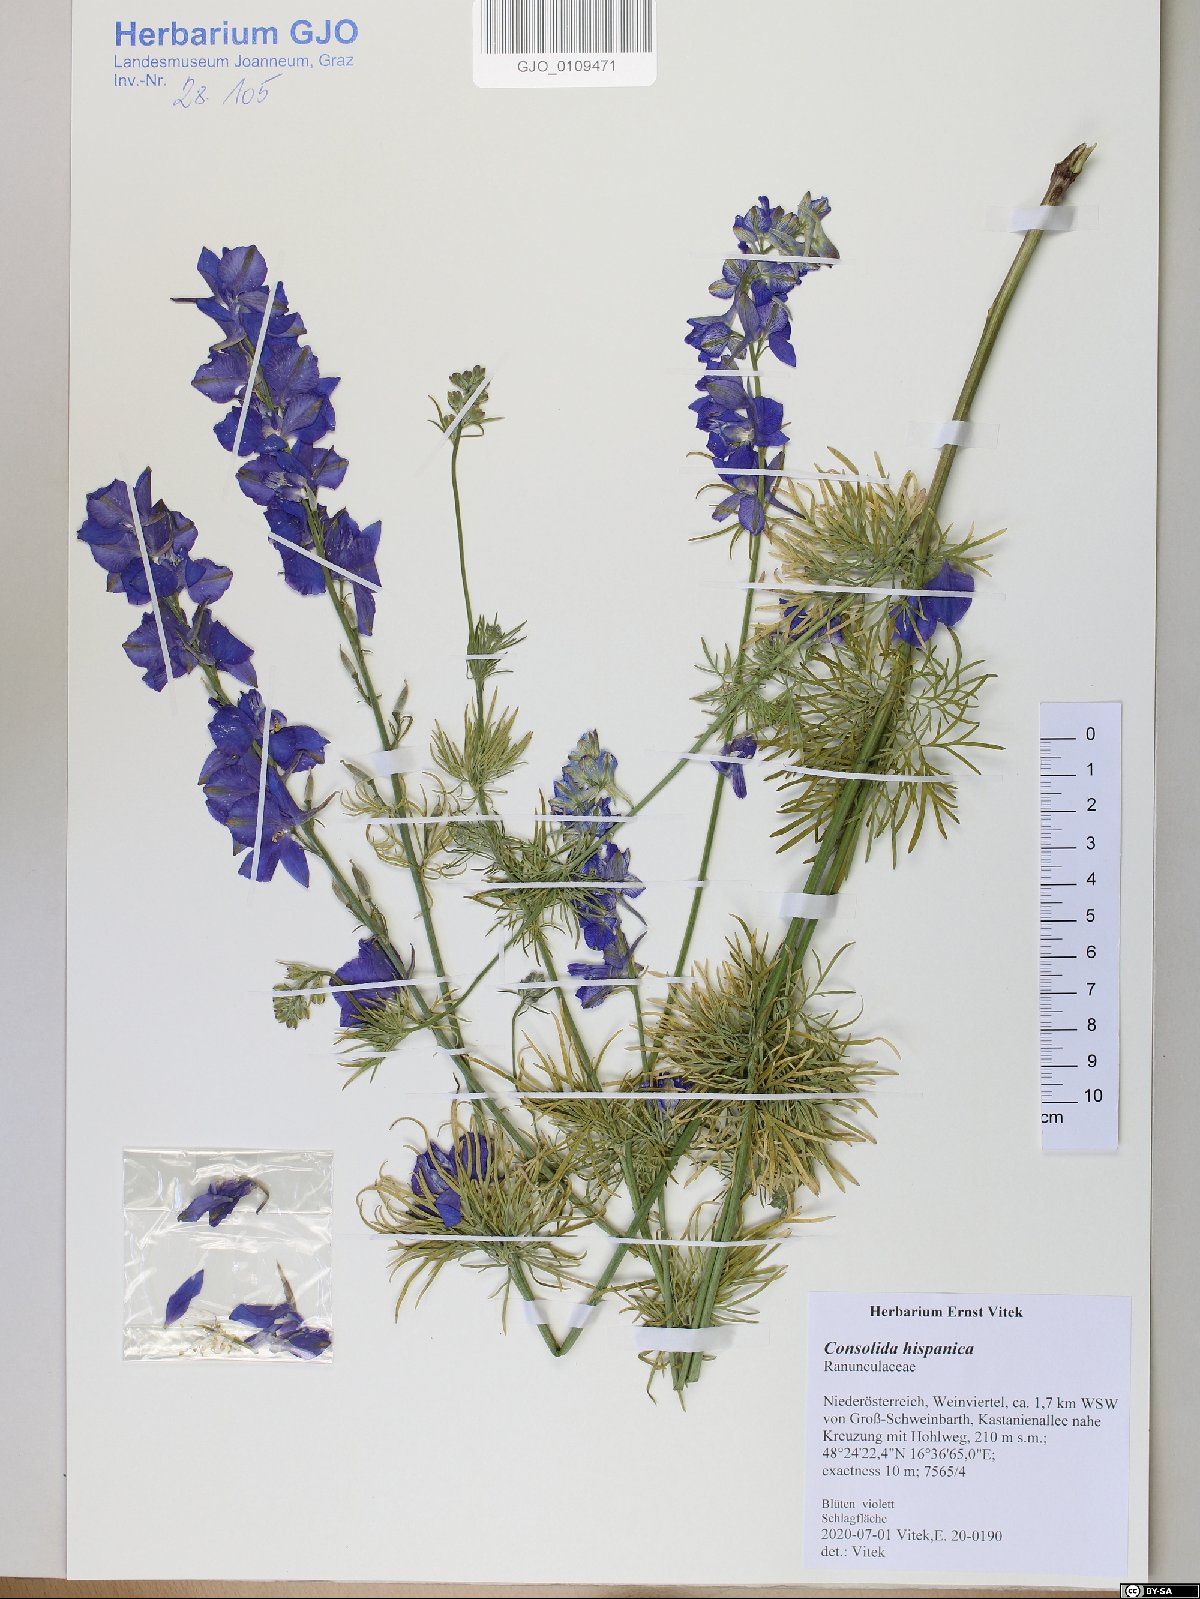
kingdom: Plantae
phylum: Tracheophyta
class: Magnoliopsida
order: Ranunculales
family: Ranunculaceae
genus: Delphinium
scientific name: Delphinium hispanicum
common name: Oriental knight's-spur
